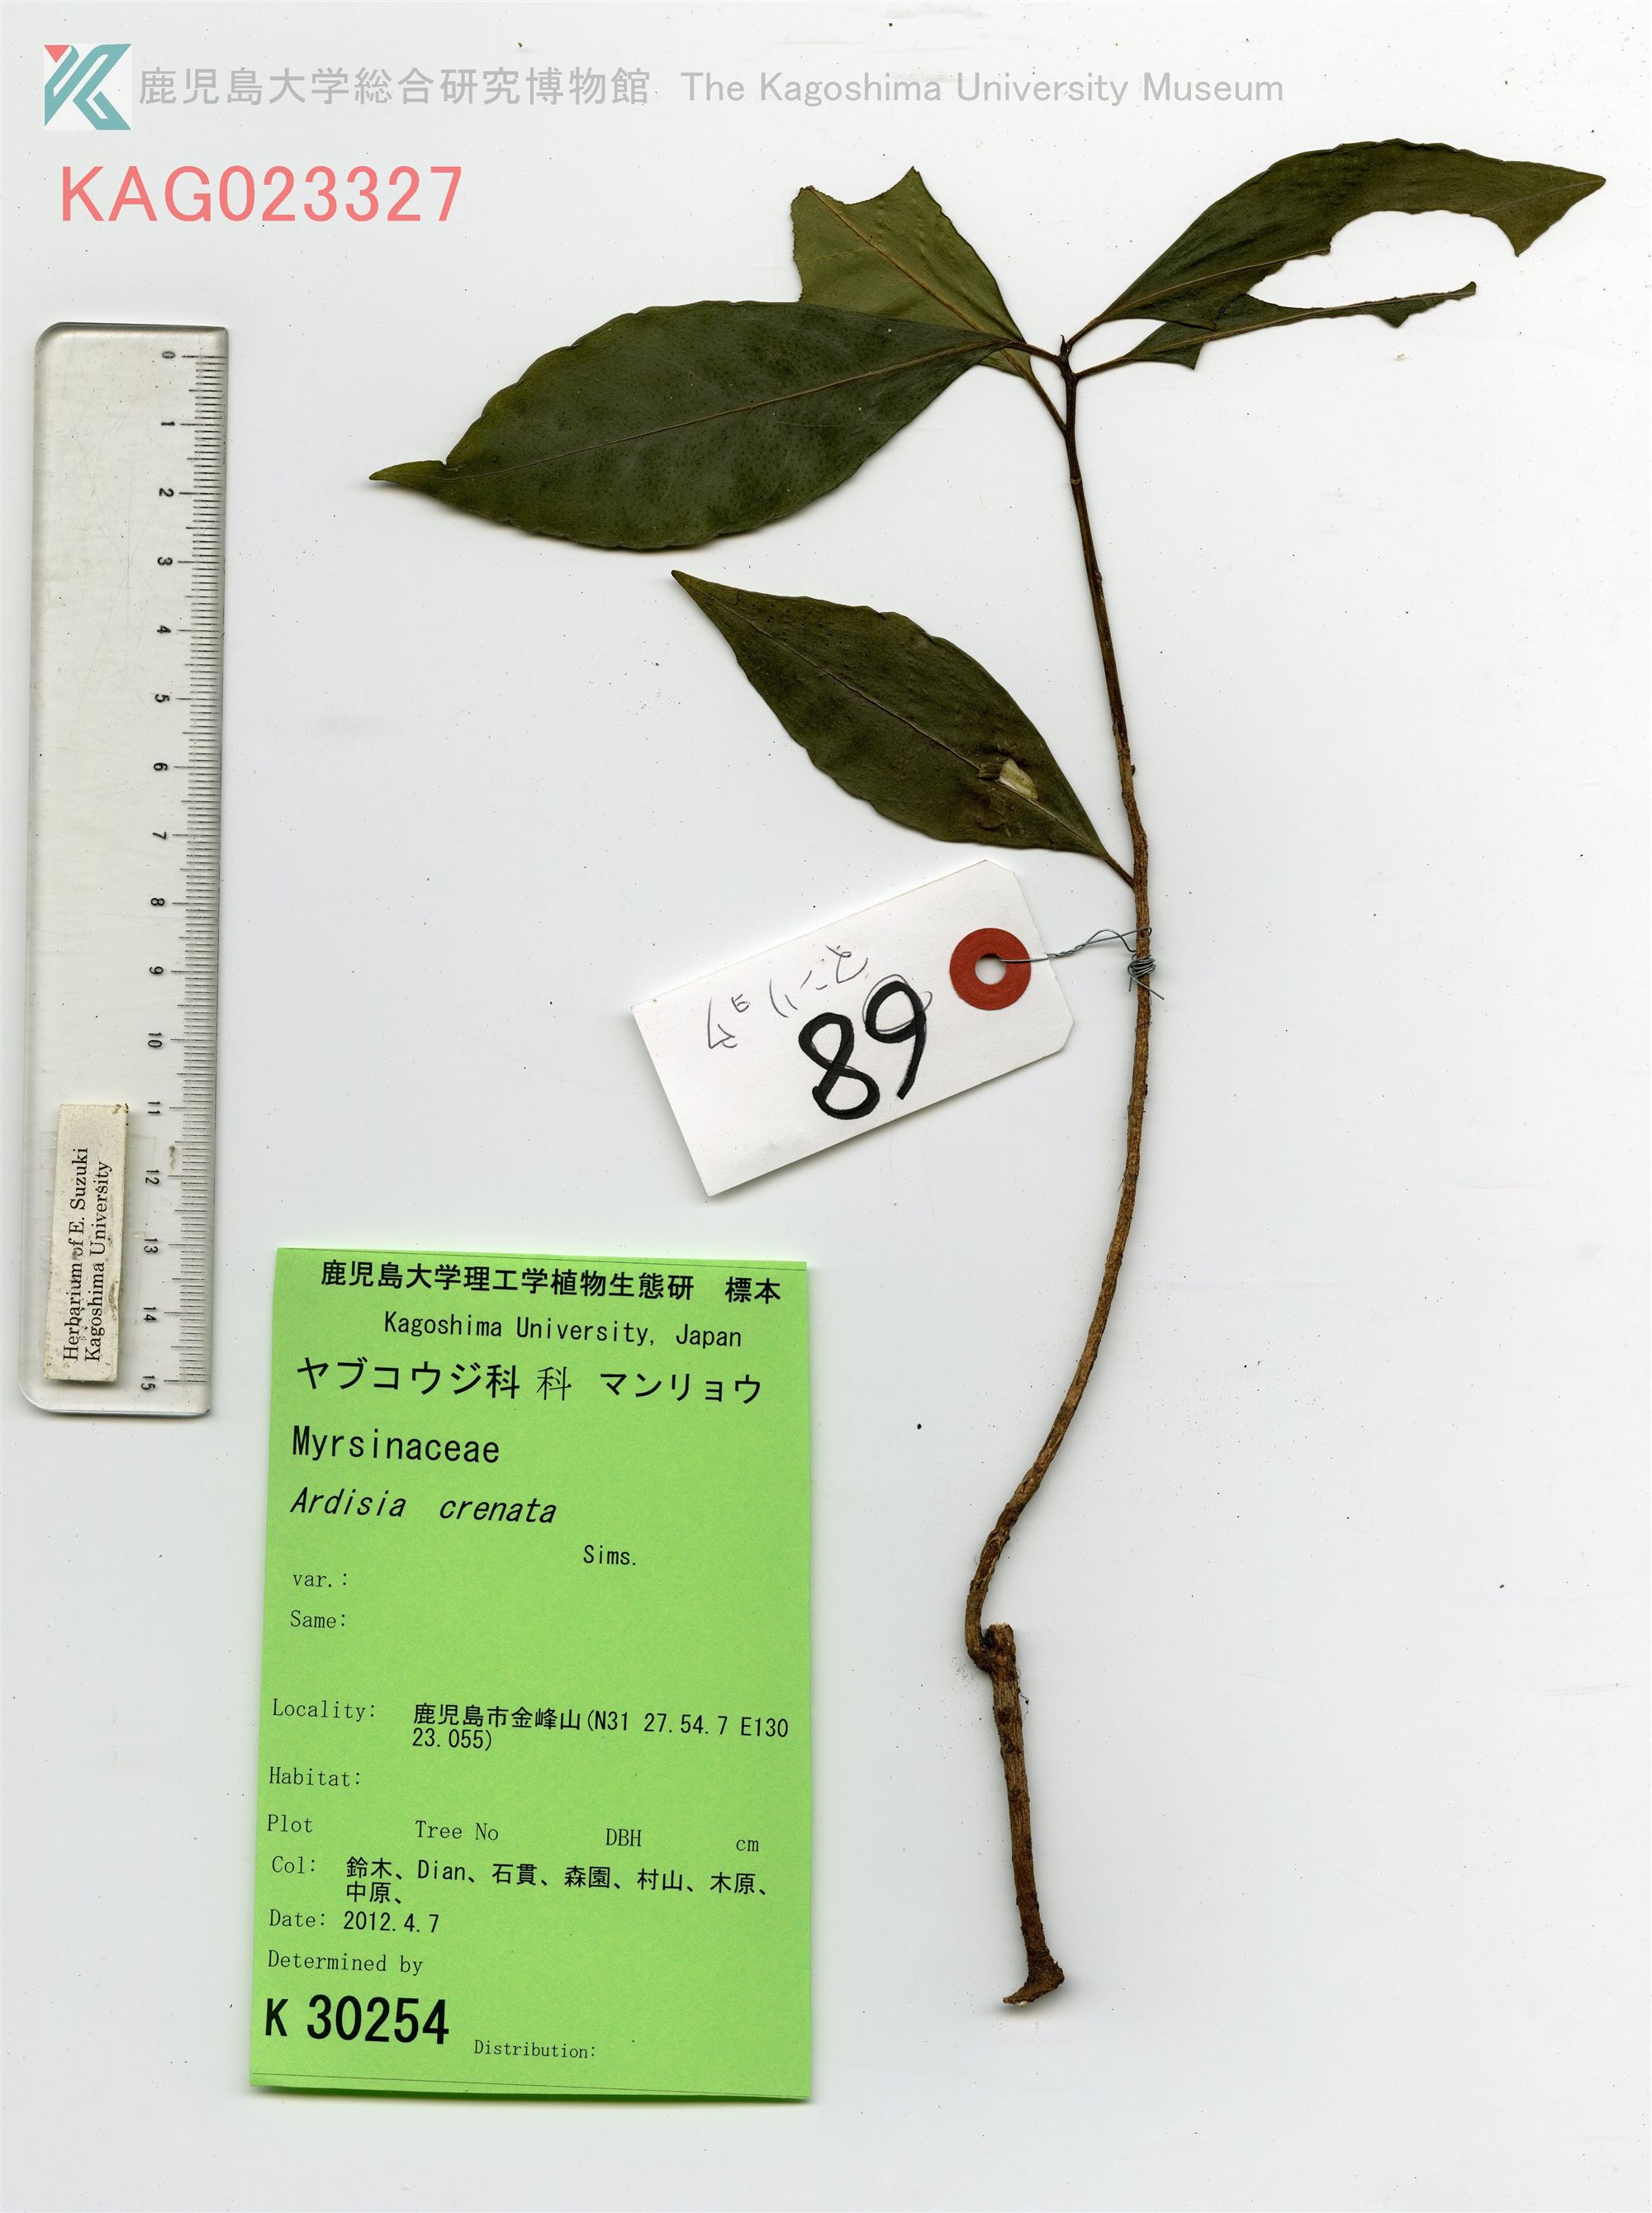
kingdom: Plantae
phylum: Tracheophyta
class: Magnoliopsida
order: Ericales
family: Primulaceae
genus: Ardisia
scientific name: Ardisia crenata
